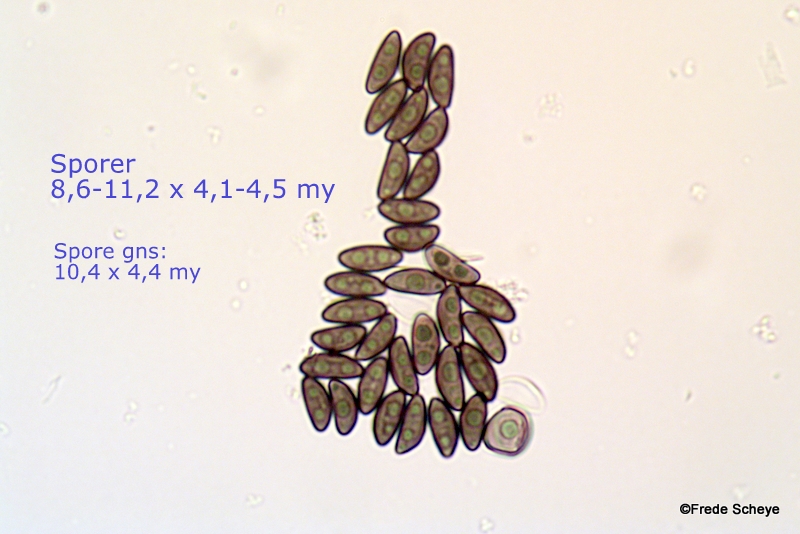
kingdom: Fungi
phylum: Ascomycota
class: Sordariomycetes
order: Xylariales
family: Hypoxylaceae
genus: Jackrogersella
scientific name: Jackrogersella cohaerens
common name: sammenflydende kulbær
